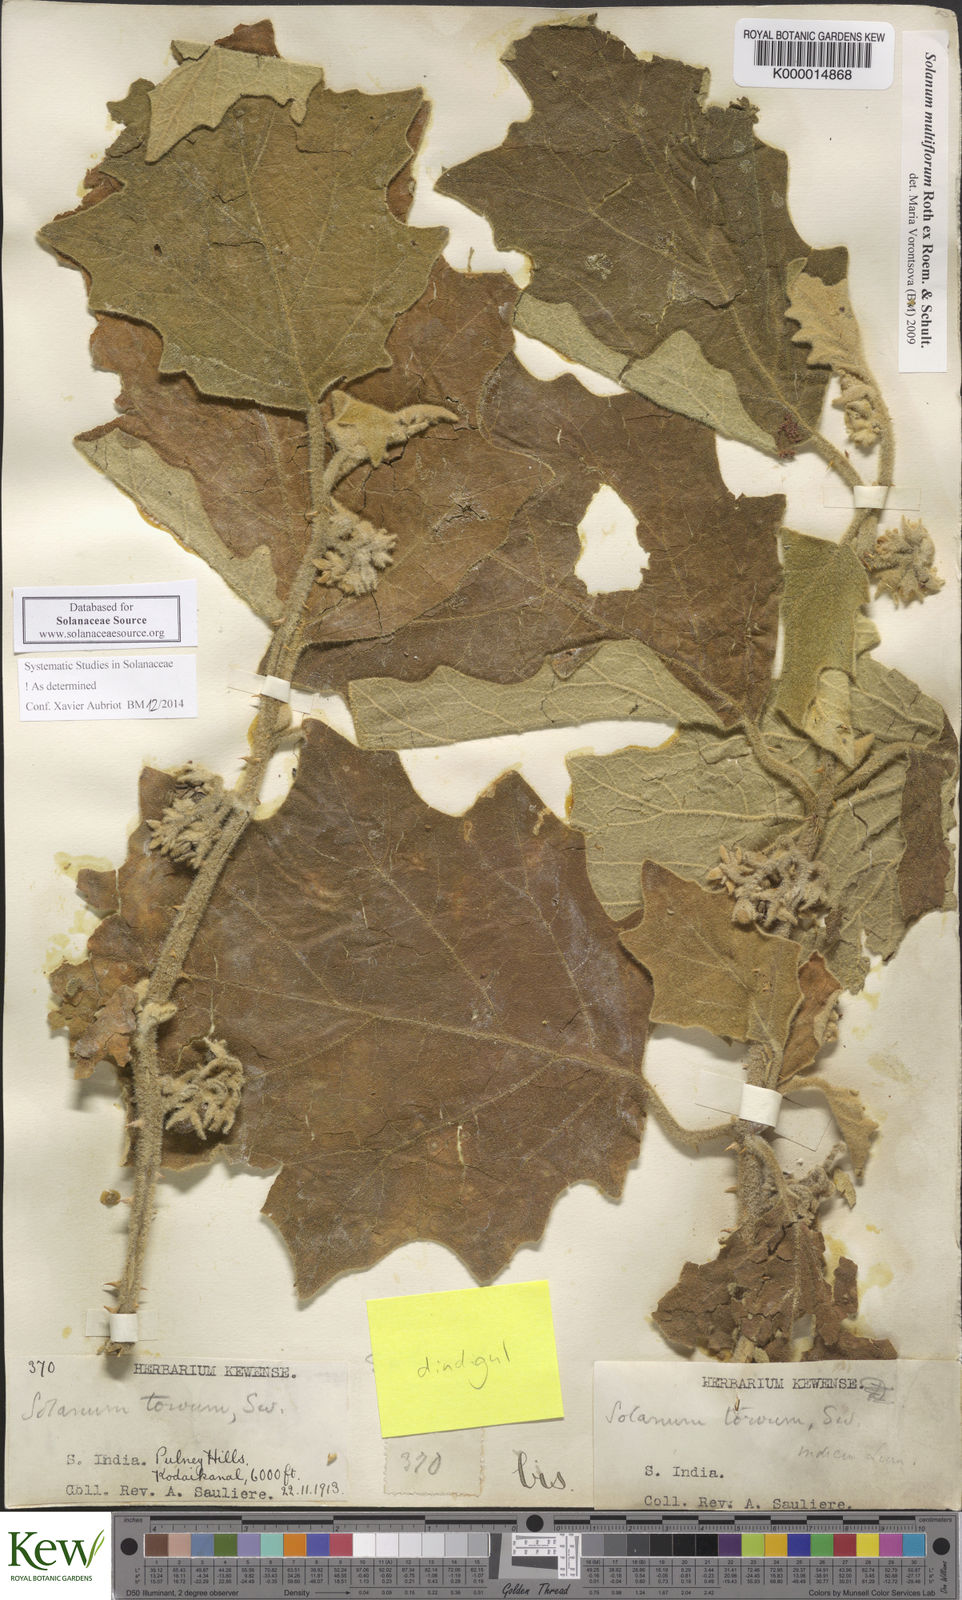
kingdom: Plantae
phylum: Tracheophyta
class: Magnoliopsida
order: Solanales
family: Solanaceae
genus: Solanum
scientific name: Solanum multiflorum
